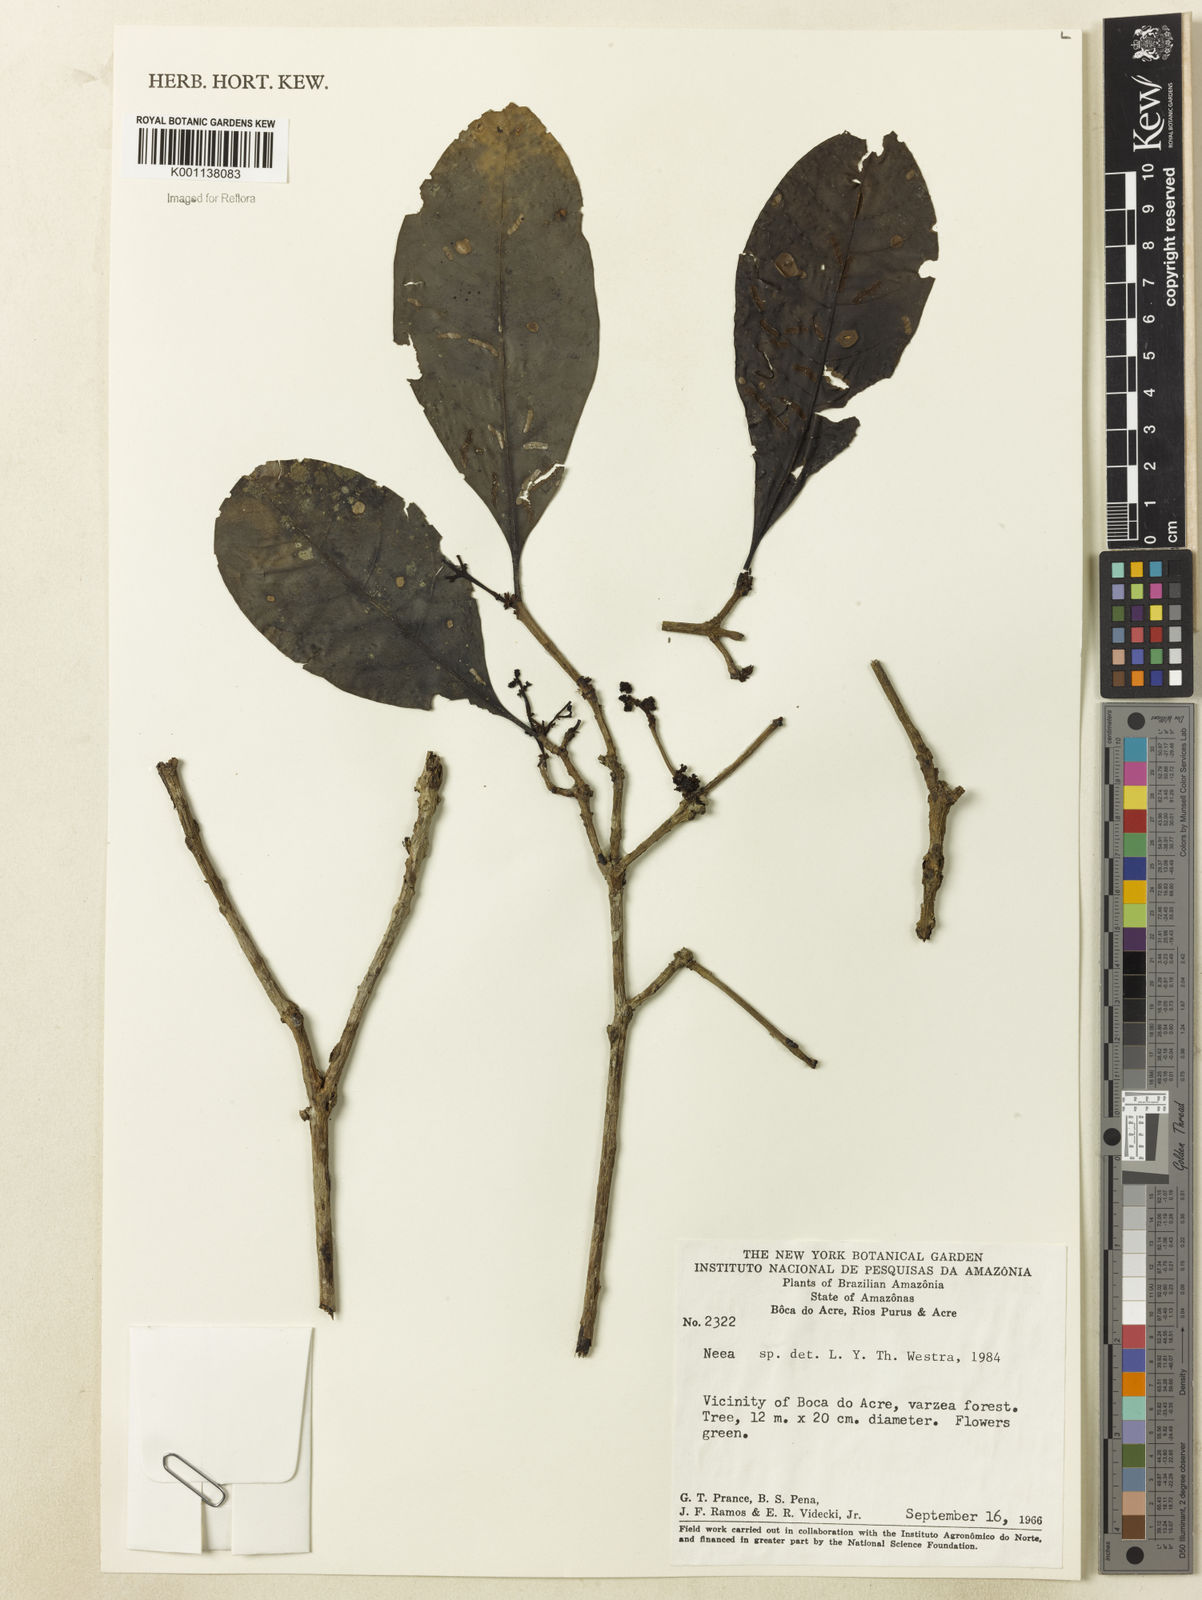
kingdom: Plantae
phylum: Tracheophyta
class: Magnoliopsida
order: Caryophyllales
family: Nyctaginaceae
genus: Neea
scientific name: Neea
